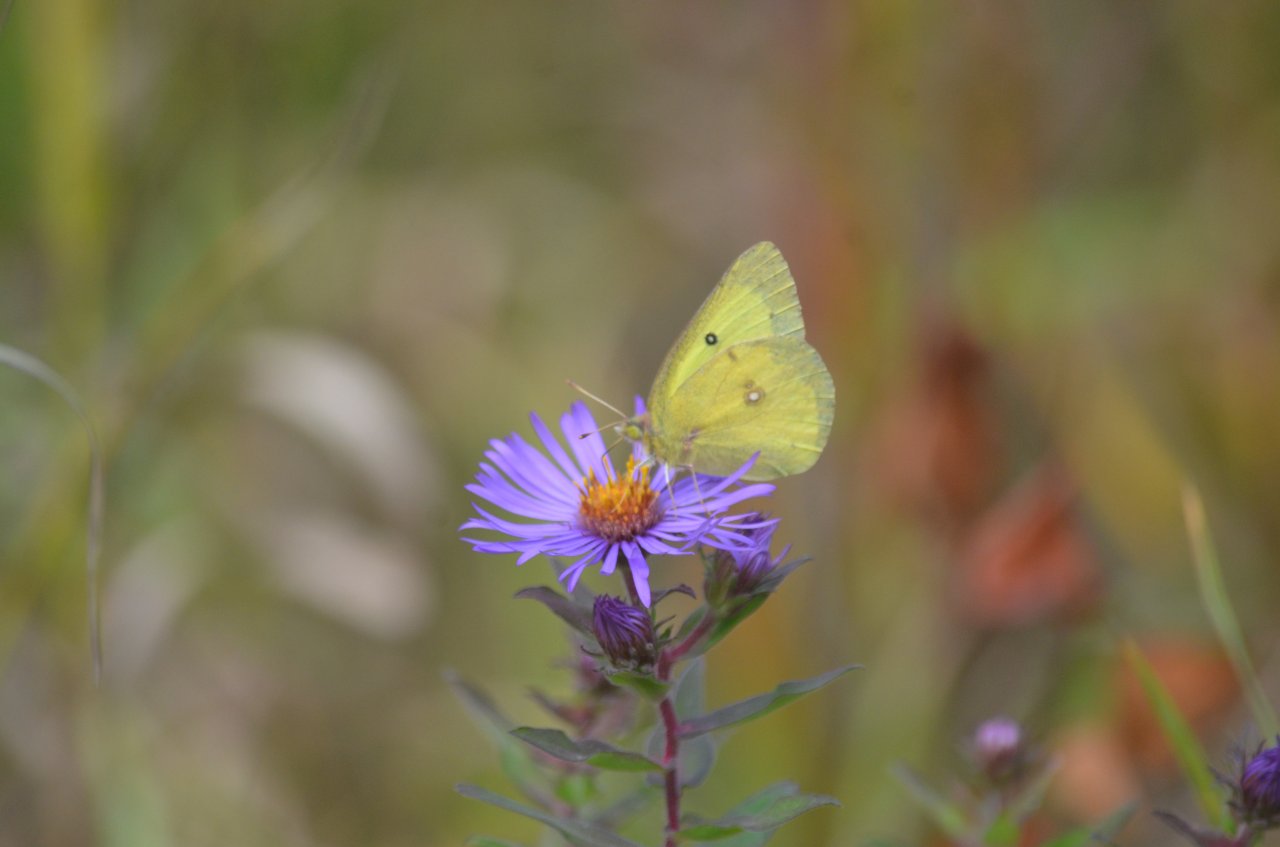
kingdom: Animalia
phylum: Arthropoda
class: Insecta
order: Lepidoptera
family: Pieridae
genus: Colias
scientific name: Colias philodice
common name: Clouded Sulphur
